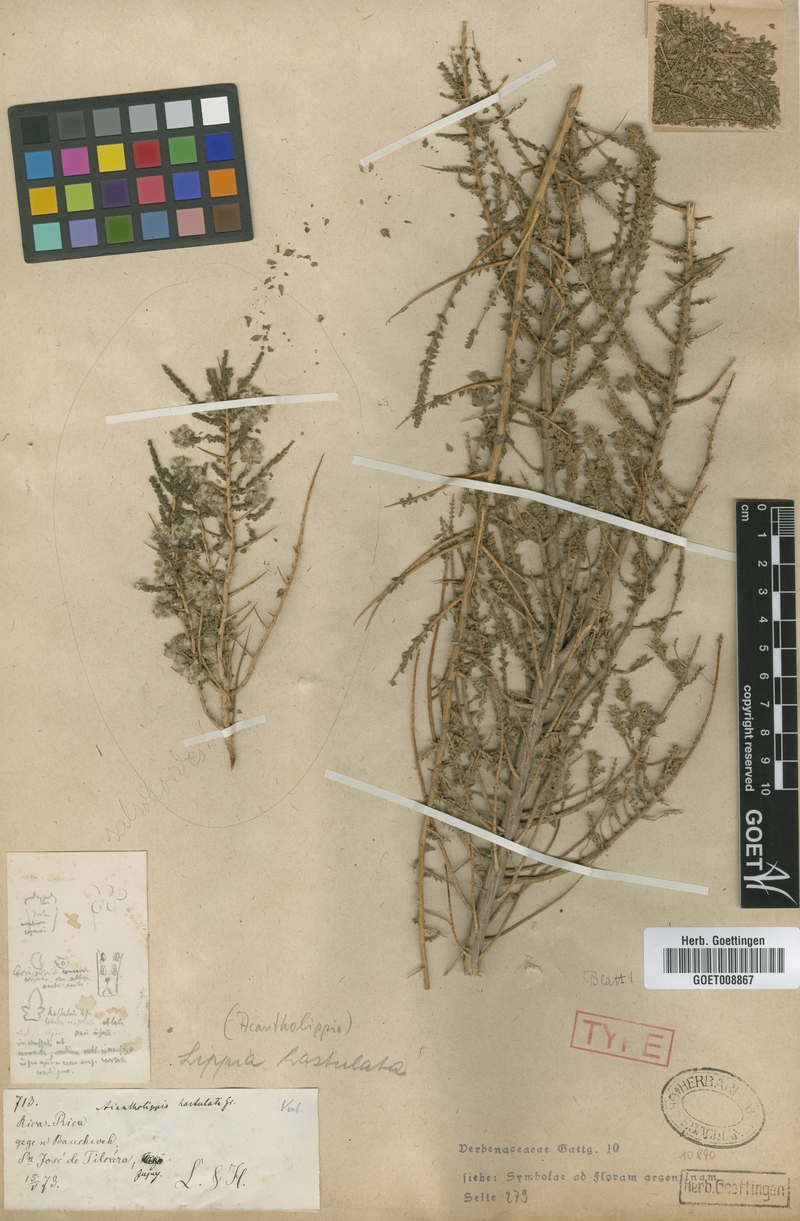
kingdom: Plantae
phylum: Tracheophyta
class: Magnoliopsida
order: Lamiales
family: Verbenaceae
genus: Aloysia
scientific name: Aloysia salsoloides
